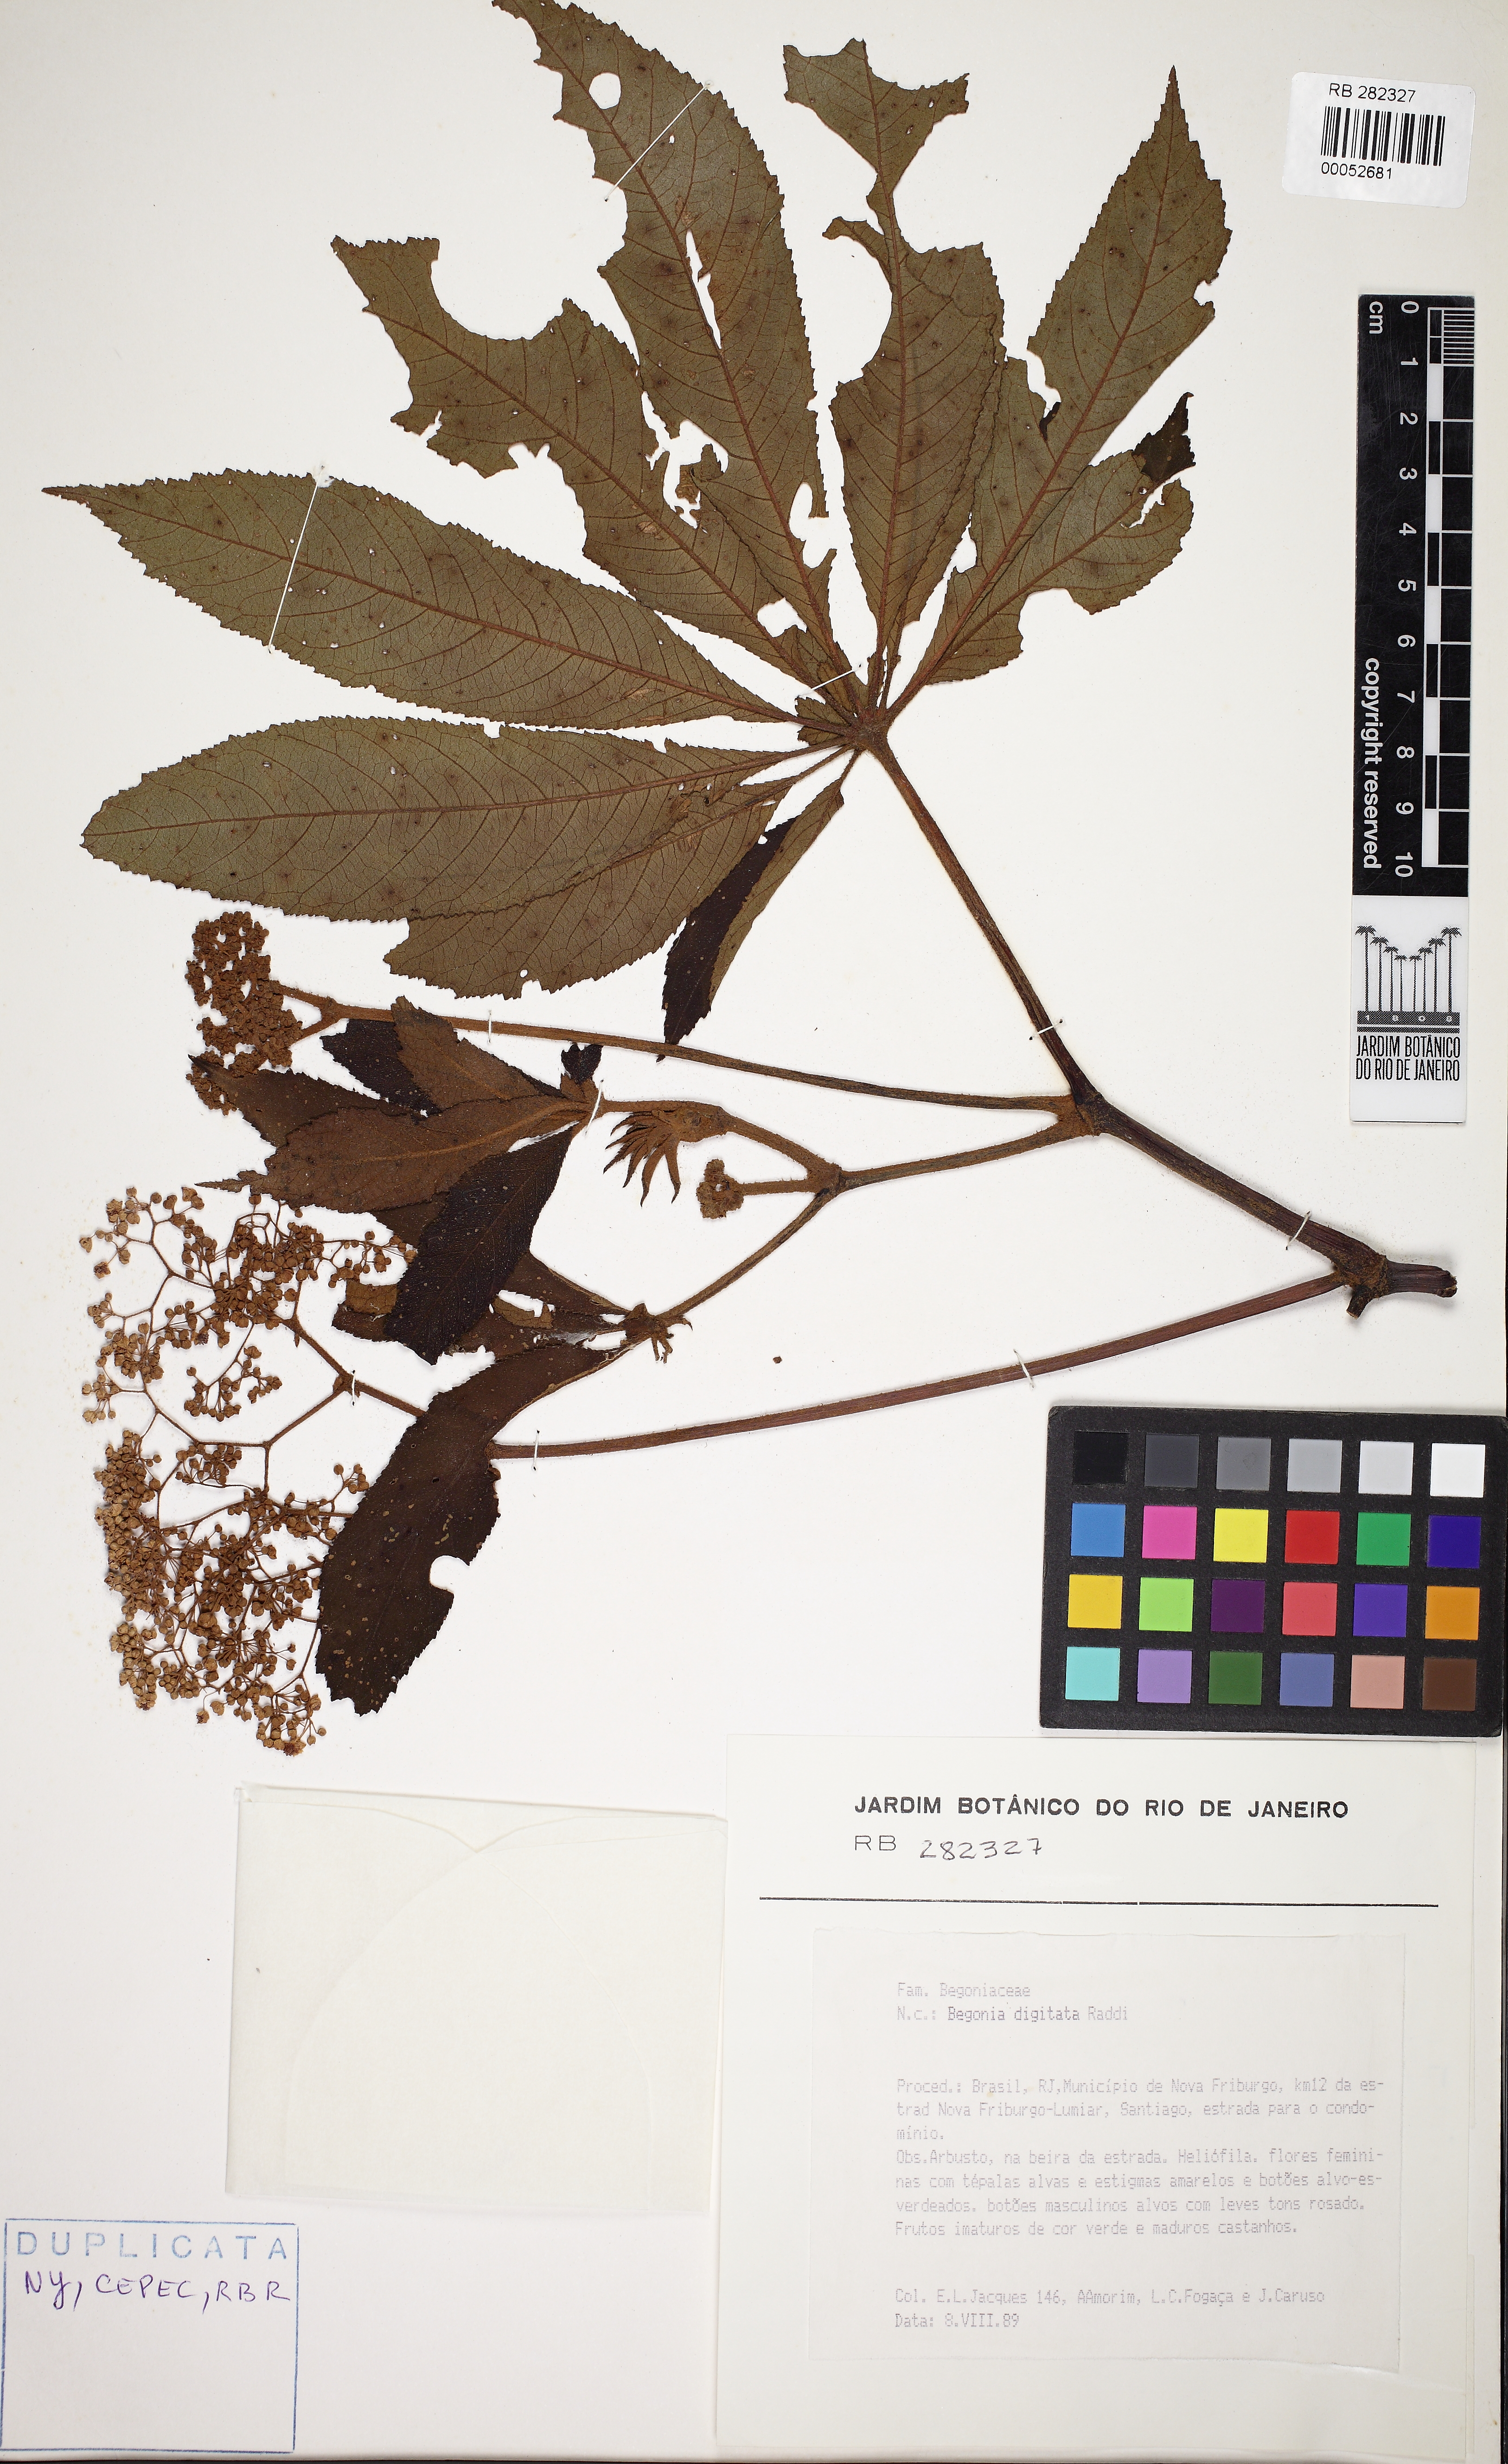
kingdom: Plantae
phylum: Tracheophyta
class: Magnoliopsida
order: Cucurbitales
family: Begoniaceae
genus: Begonia
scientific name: Begonia digitata
